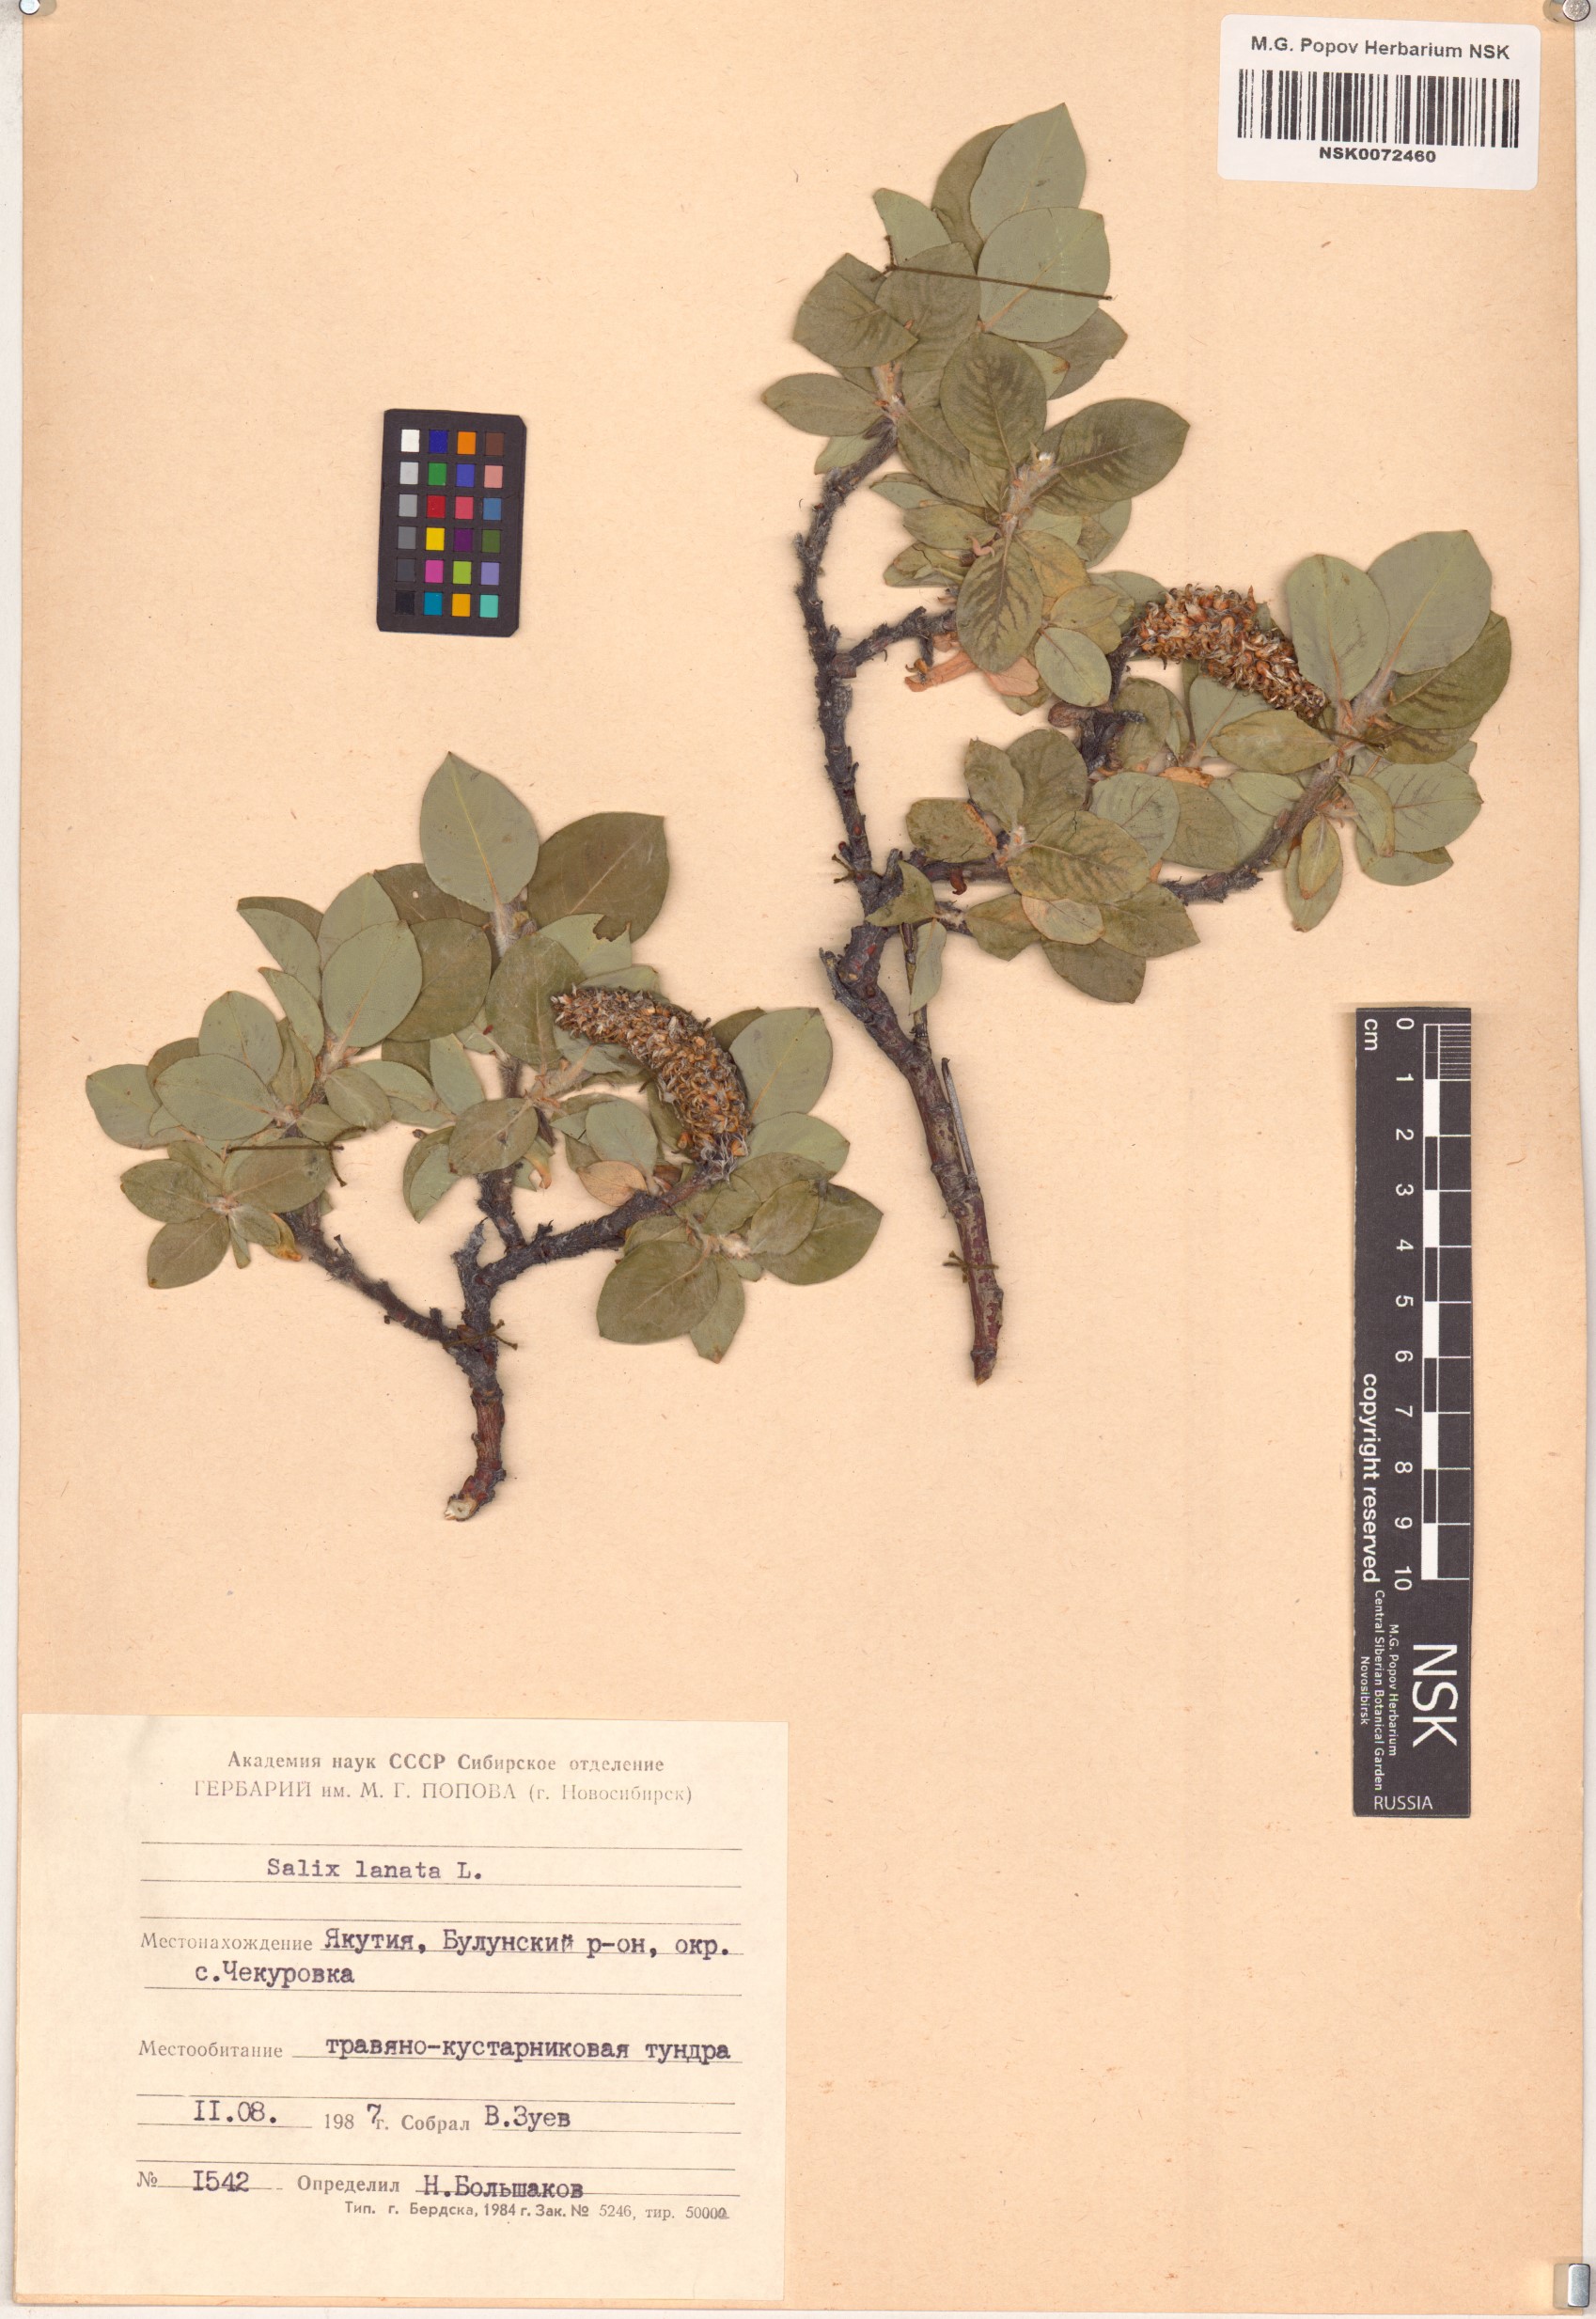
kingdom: Plantae
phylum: Tracheophyta
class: Magnoliopsida
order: Malpighiales
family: Salicaceae
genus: Salix
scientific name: Salix lanata
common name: Woolly willow
